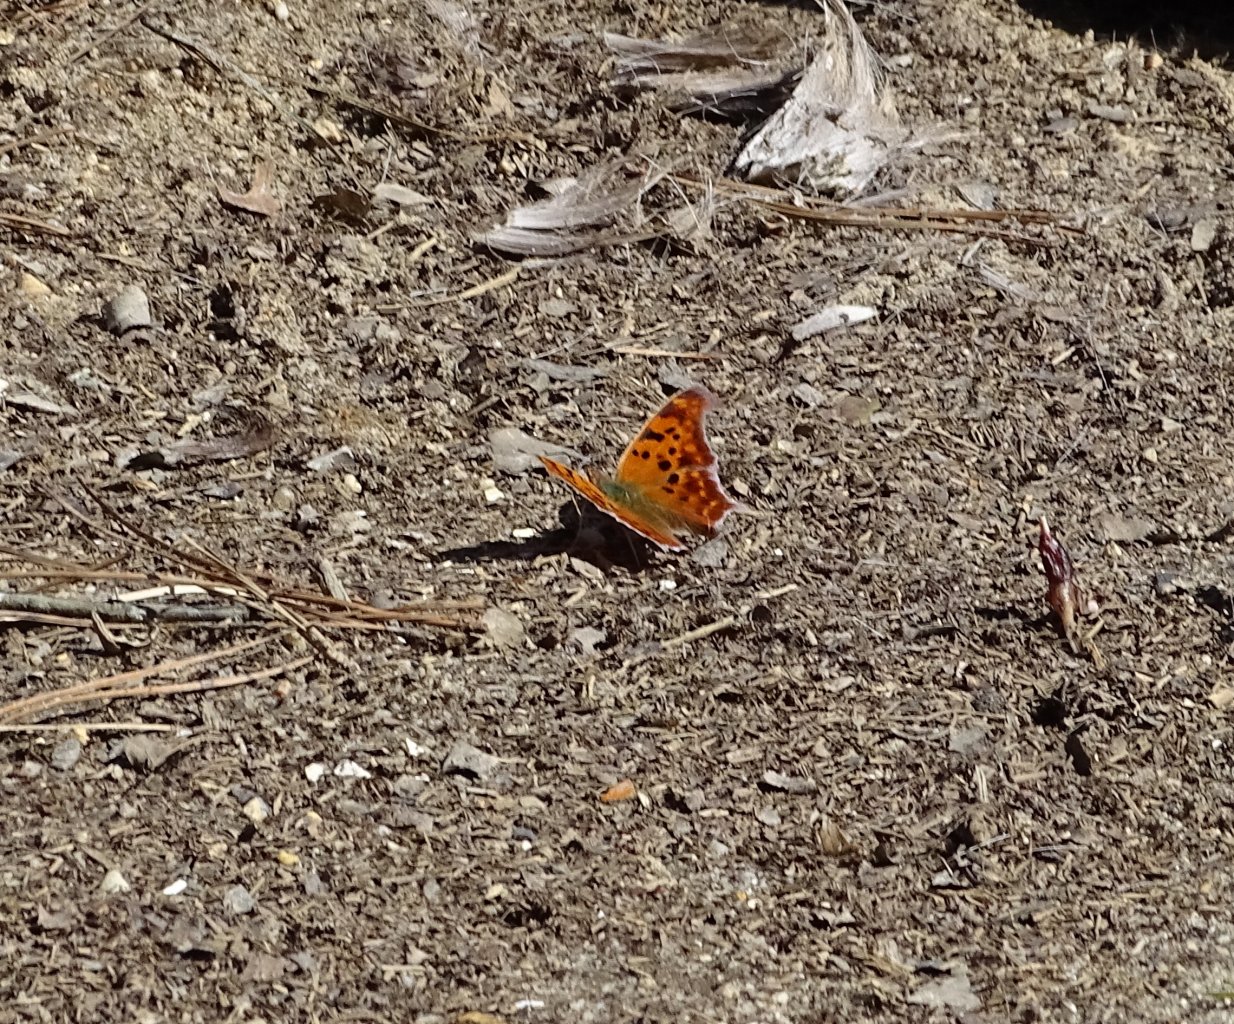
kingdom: Animalia
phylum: Arthropoda
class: Insecta
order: Lepidoptera
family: Nymphalidae
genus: Polygonia
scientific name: Polygonia interrogationis
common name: Question Mark
